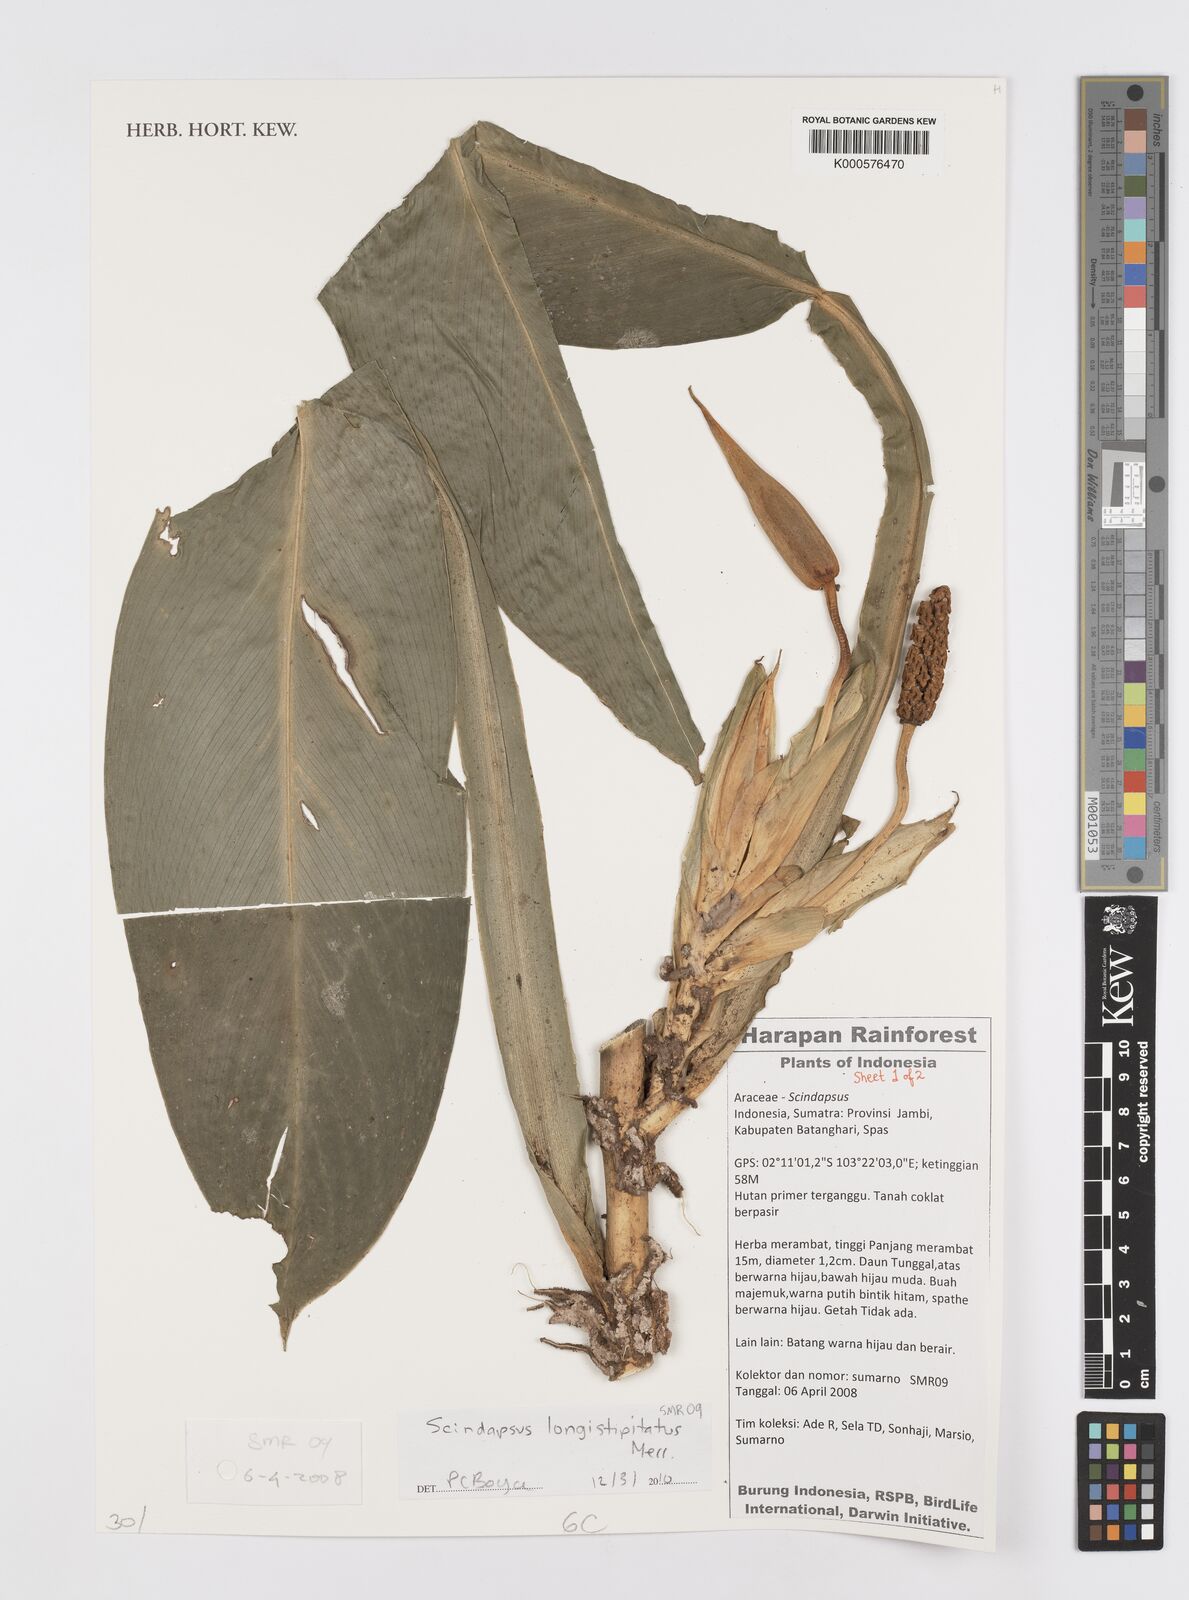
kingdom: Plantae
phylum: Tracheophyta
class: Liliopsida
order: Alismatales
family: Araceae
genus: Scindapsus
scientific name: Scindapsus longistipitatus
